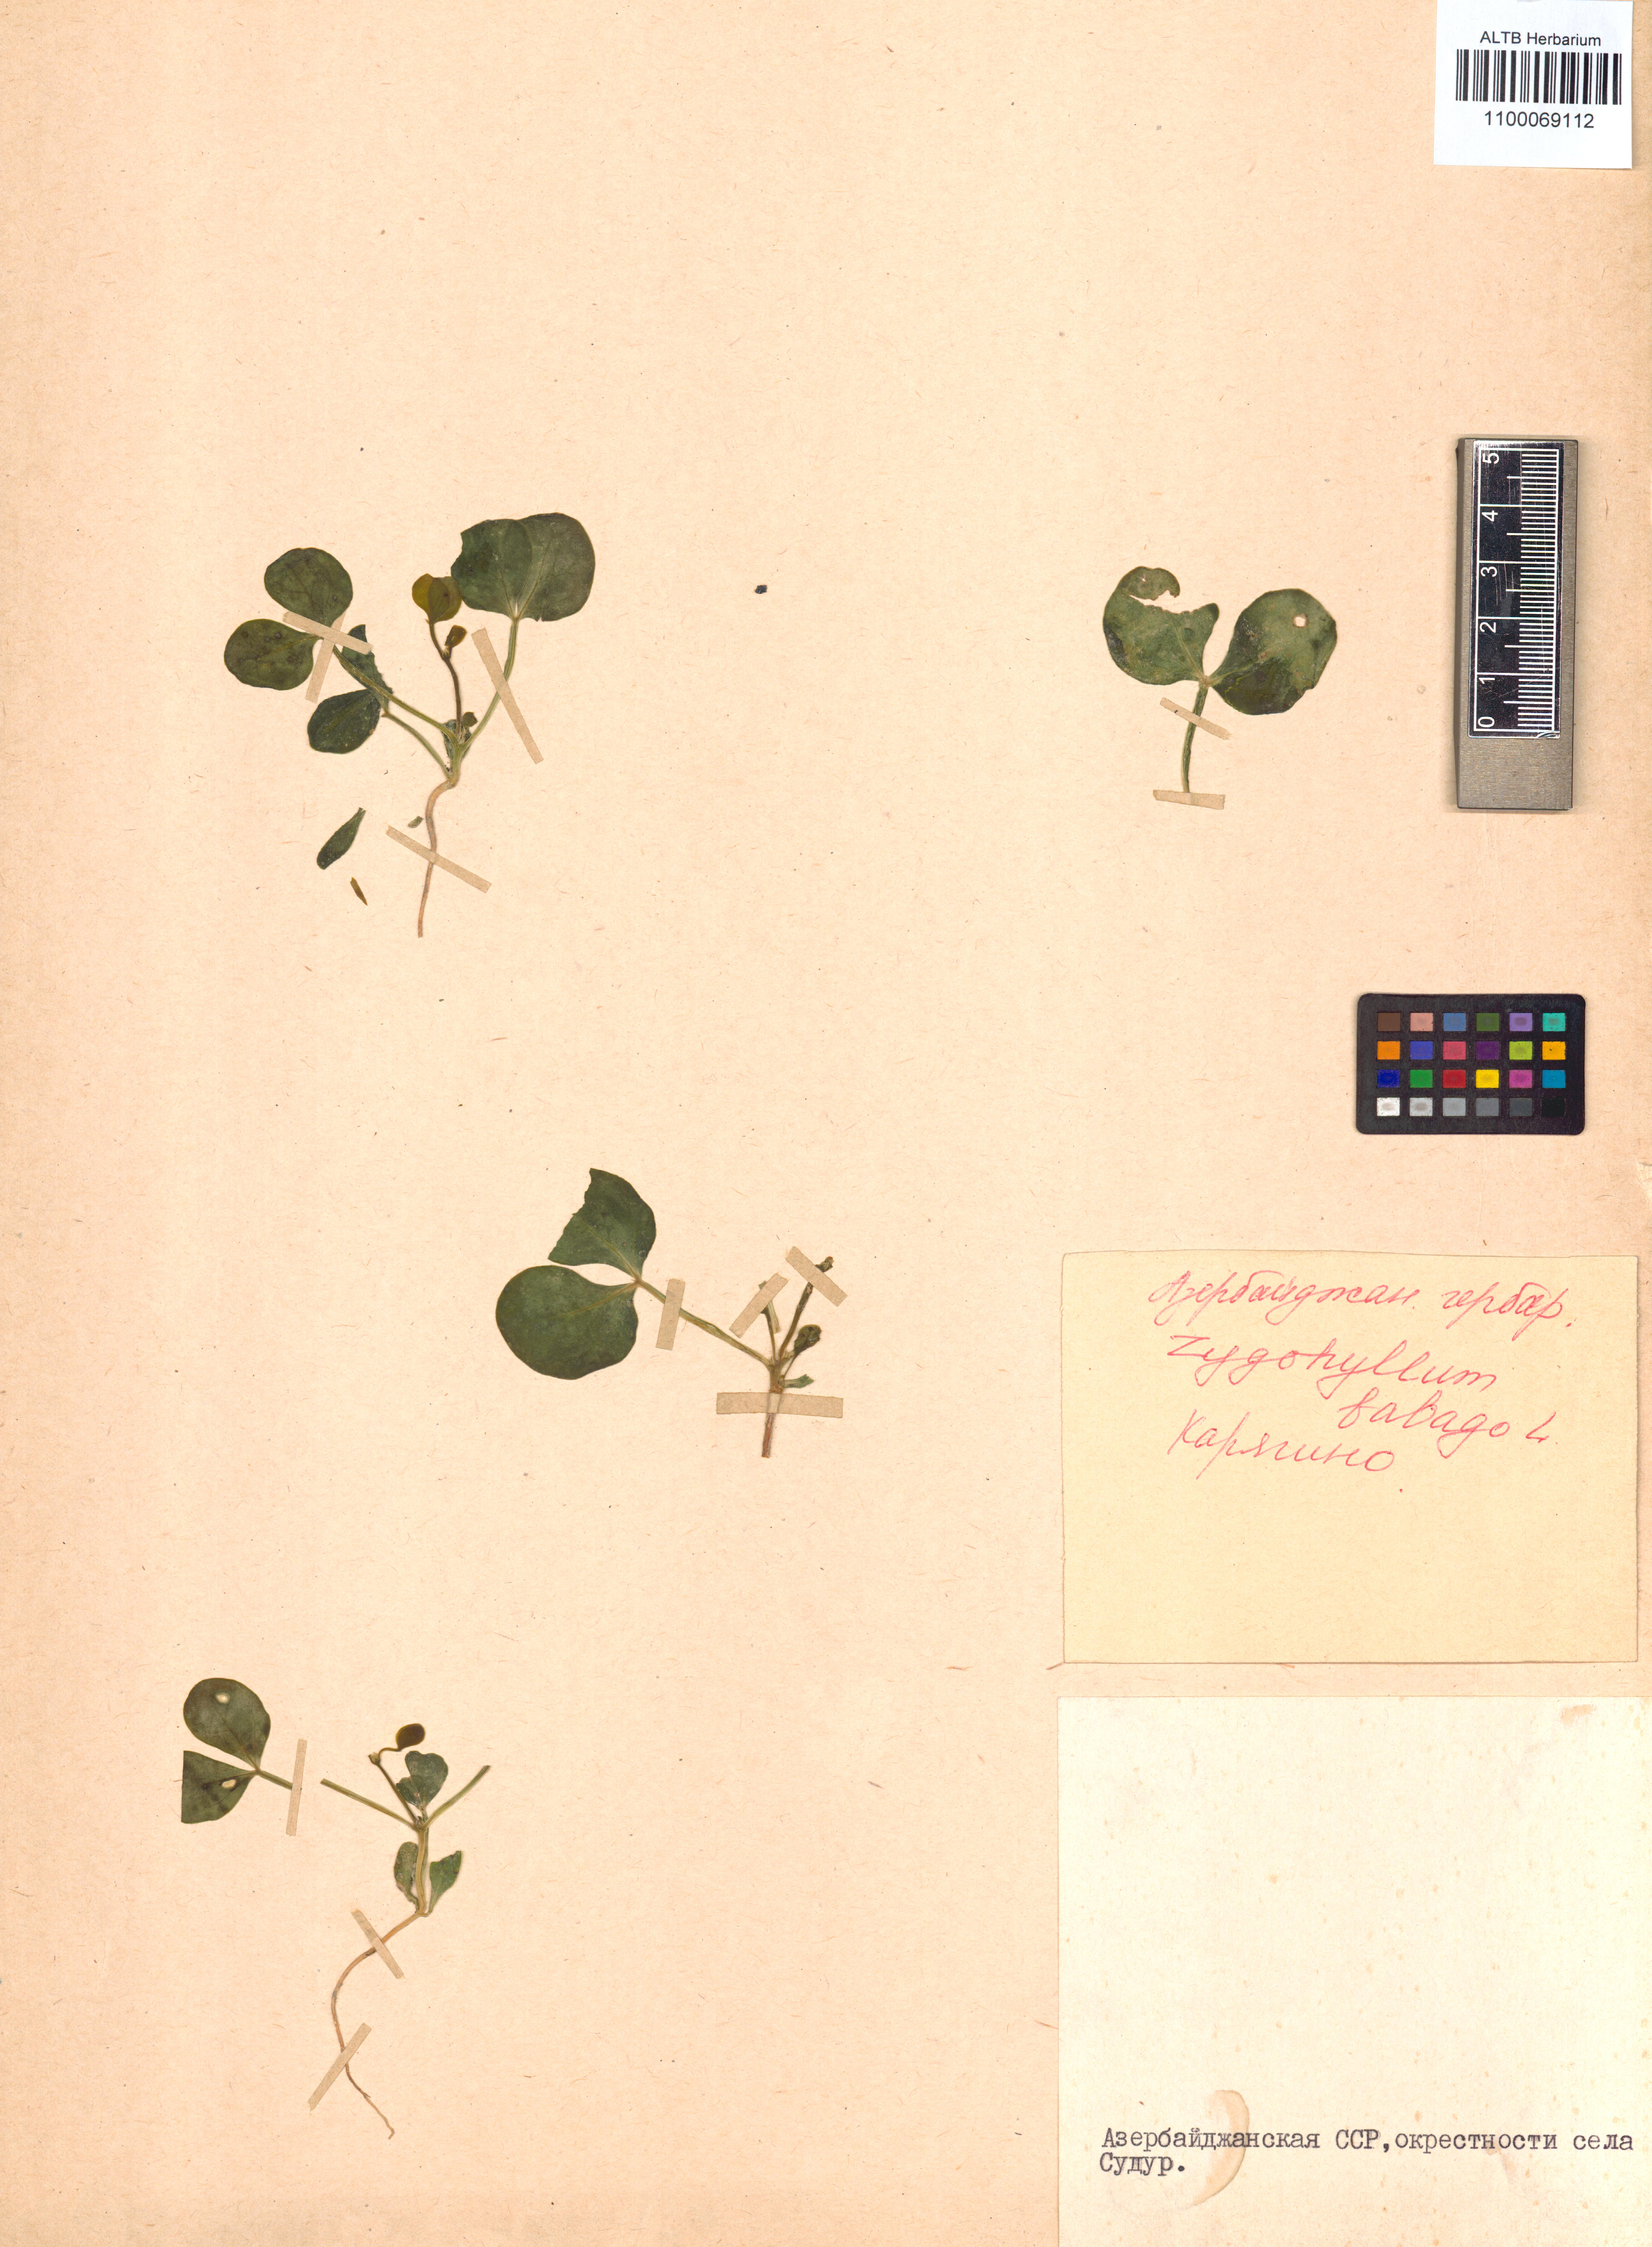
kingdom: Plantae
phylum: Tracheophyta
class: Magnoliopsida
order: Zygophyllales
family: Zygophyllaceae
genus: Zygophyllum
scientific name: Zygophyllum fabago
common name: Syrian beancaper
